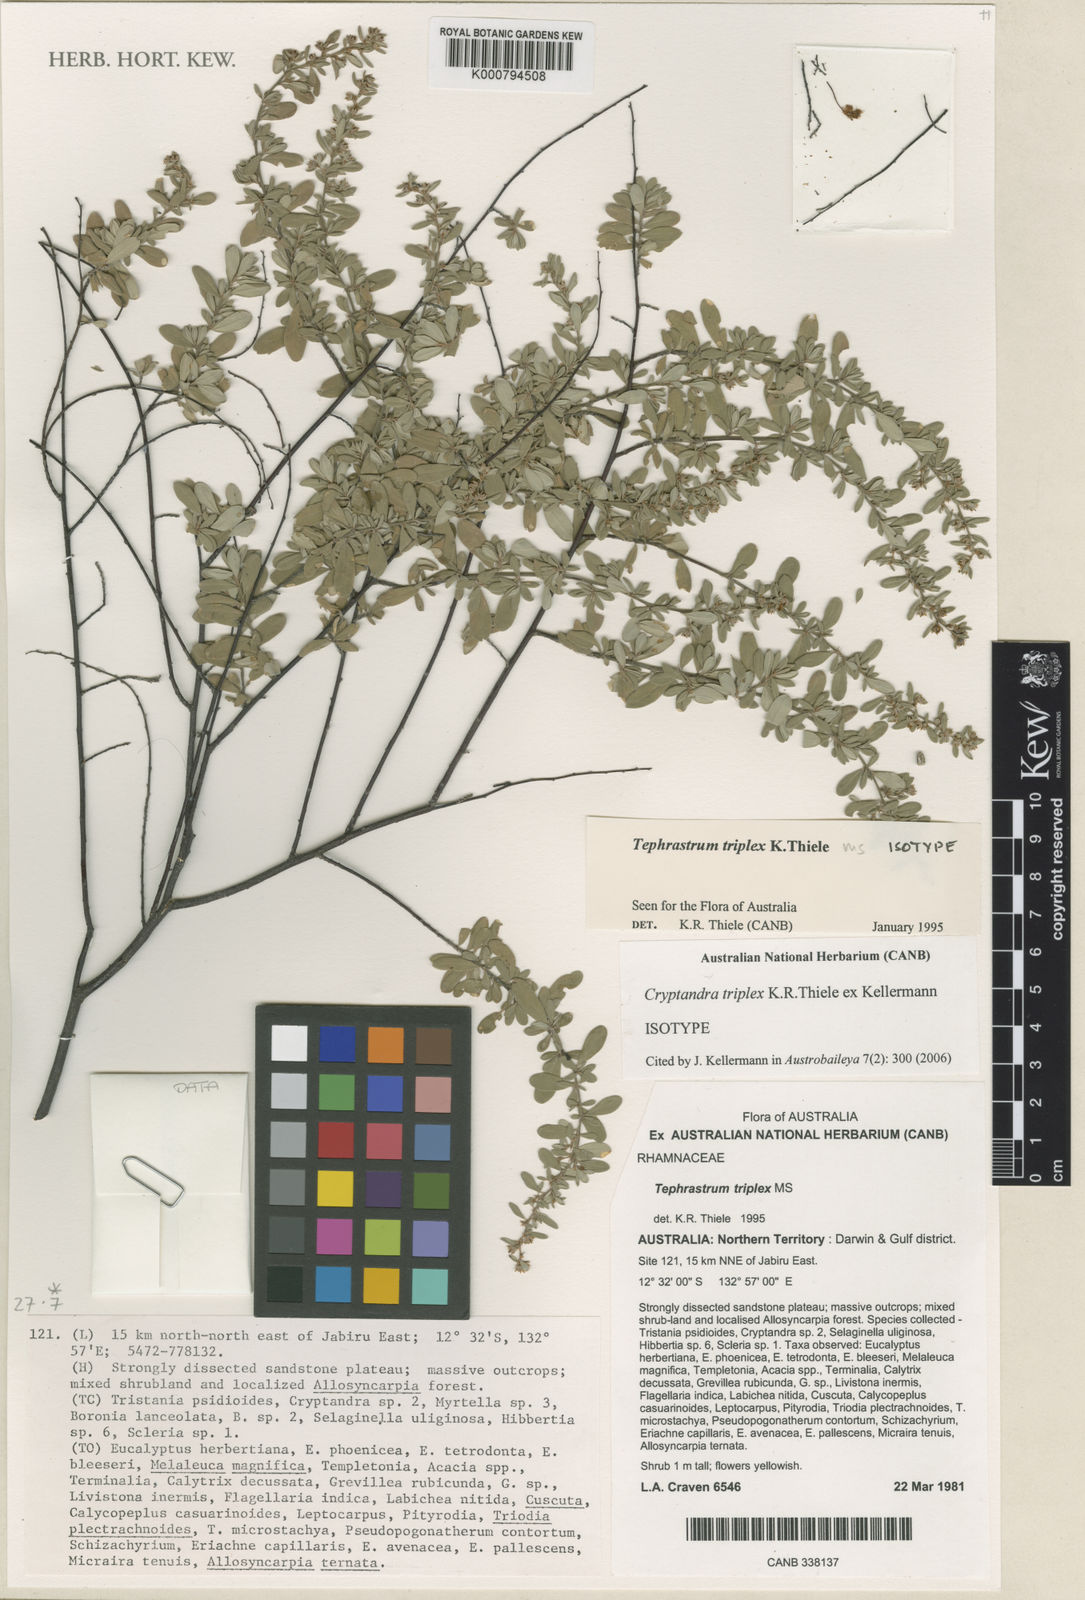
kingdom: Plantae
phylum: Tracheophyta
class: Magnoliopsida
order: Rosales
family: Rhamnaceae
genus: Cryptandra
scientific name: Cryptandra triplex
